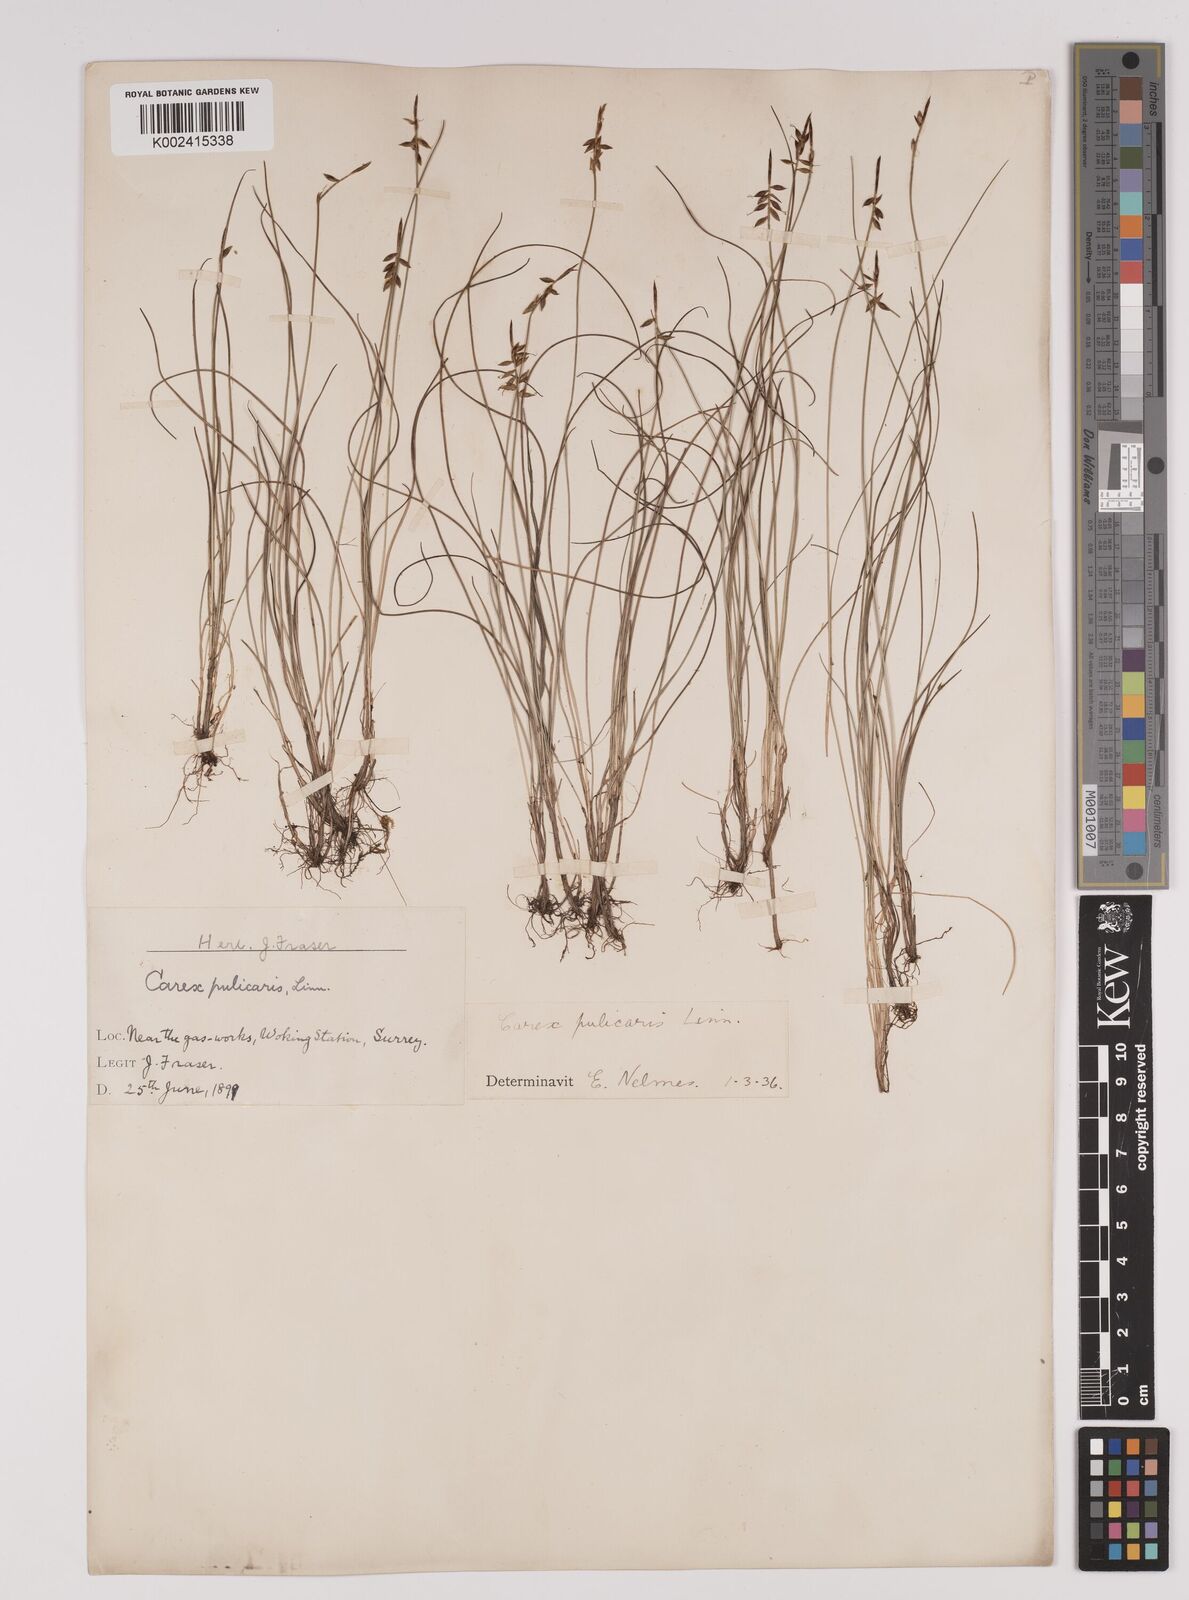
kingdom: Plantae
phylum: Tracheophyta
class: Liliopsida
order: Poales
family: Cyperaceae
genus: Carex
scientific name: Carex pulicaris
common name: Flea sedge
